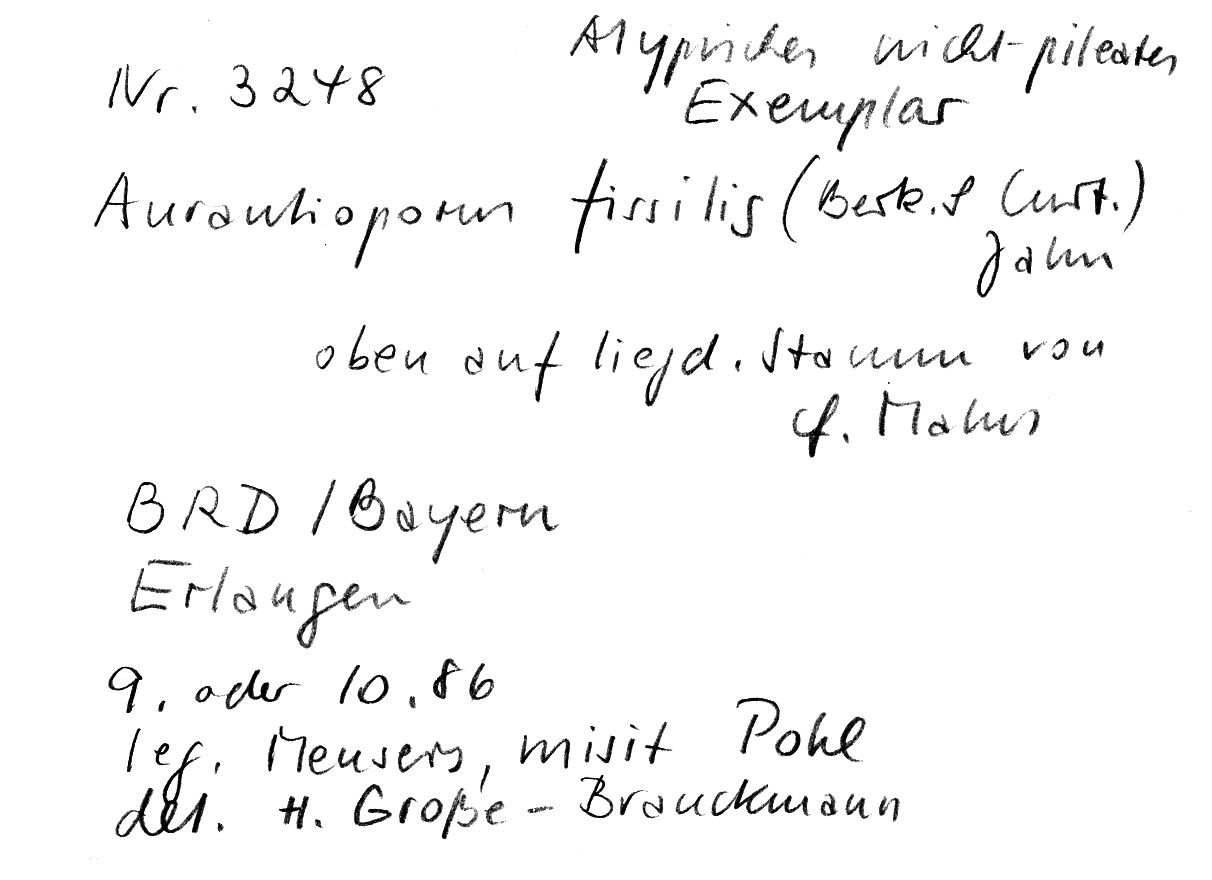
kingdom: Fungi
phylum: Basidiomycota
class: Agaricomycetes
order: Polyporales
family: Meruliaceae
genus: Pappia
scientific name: Pappia fissilis
